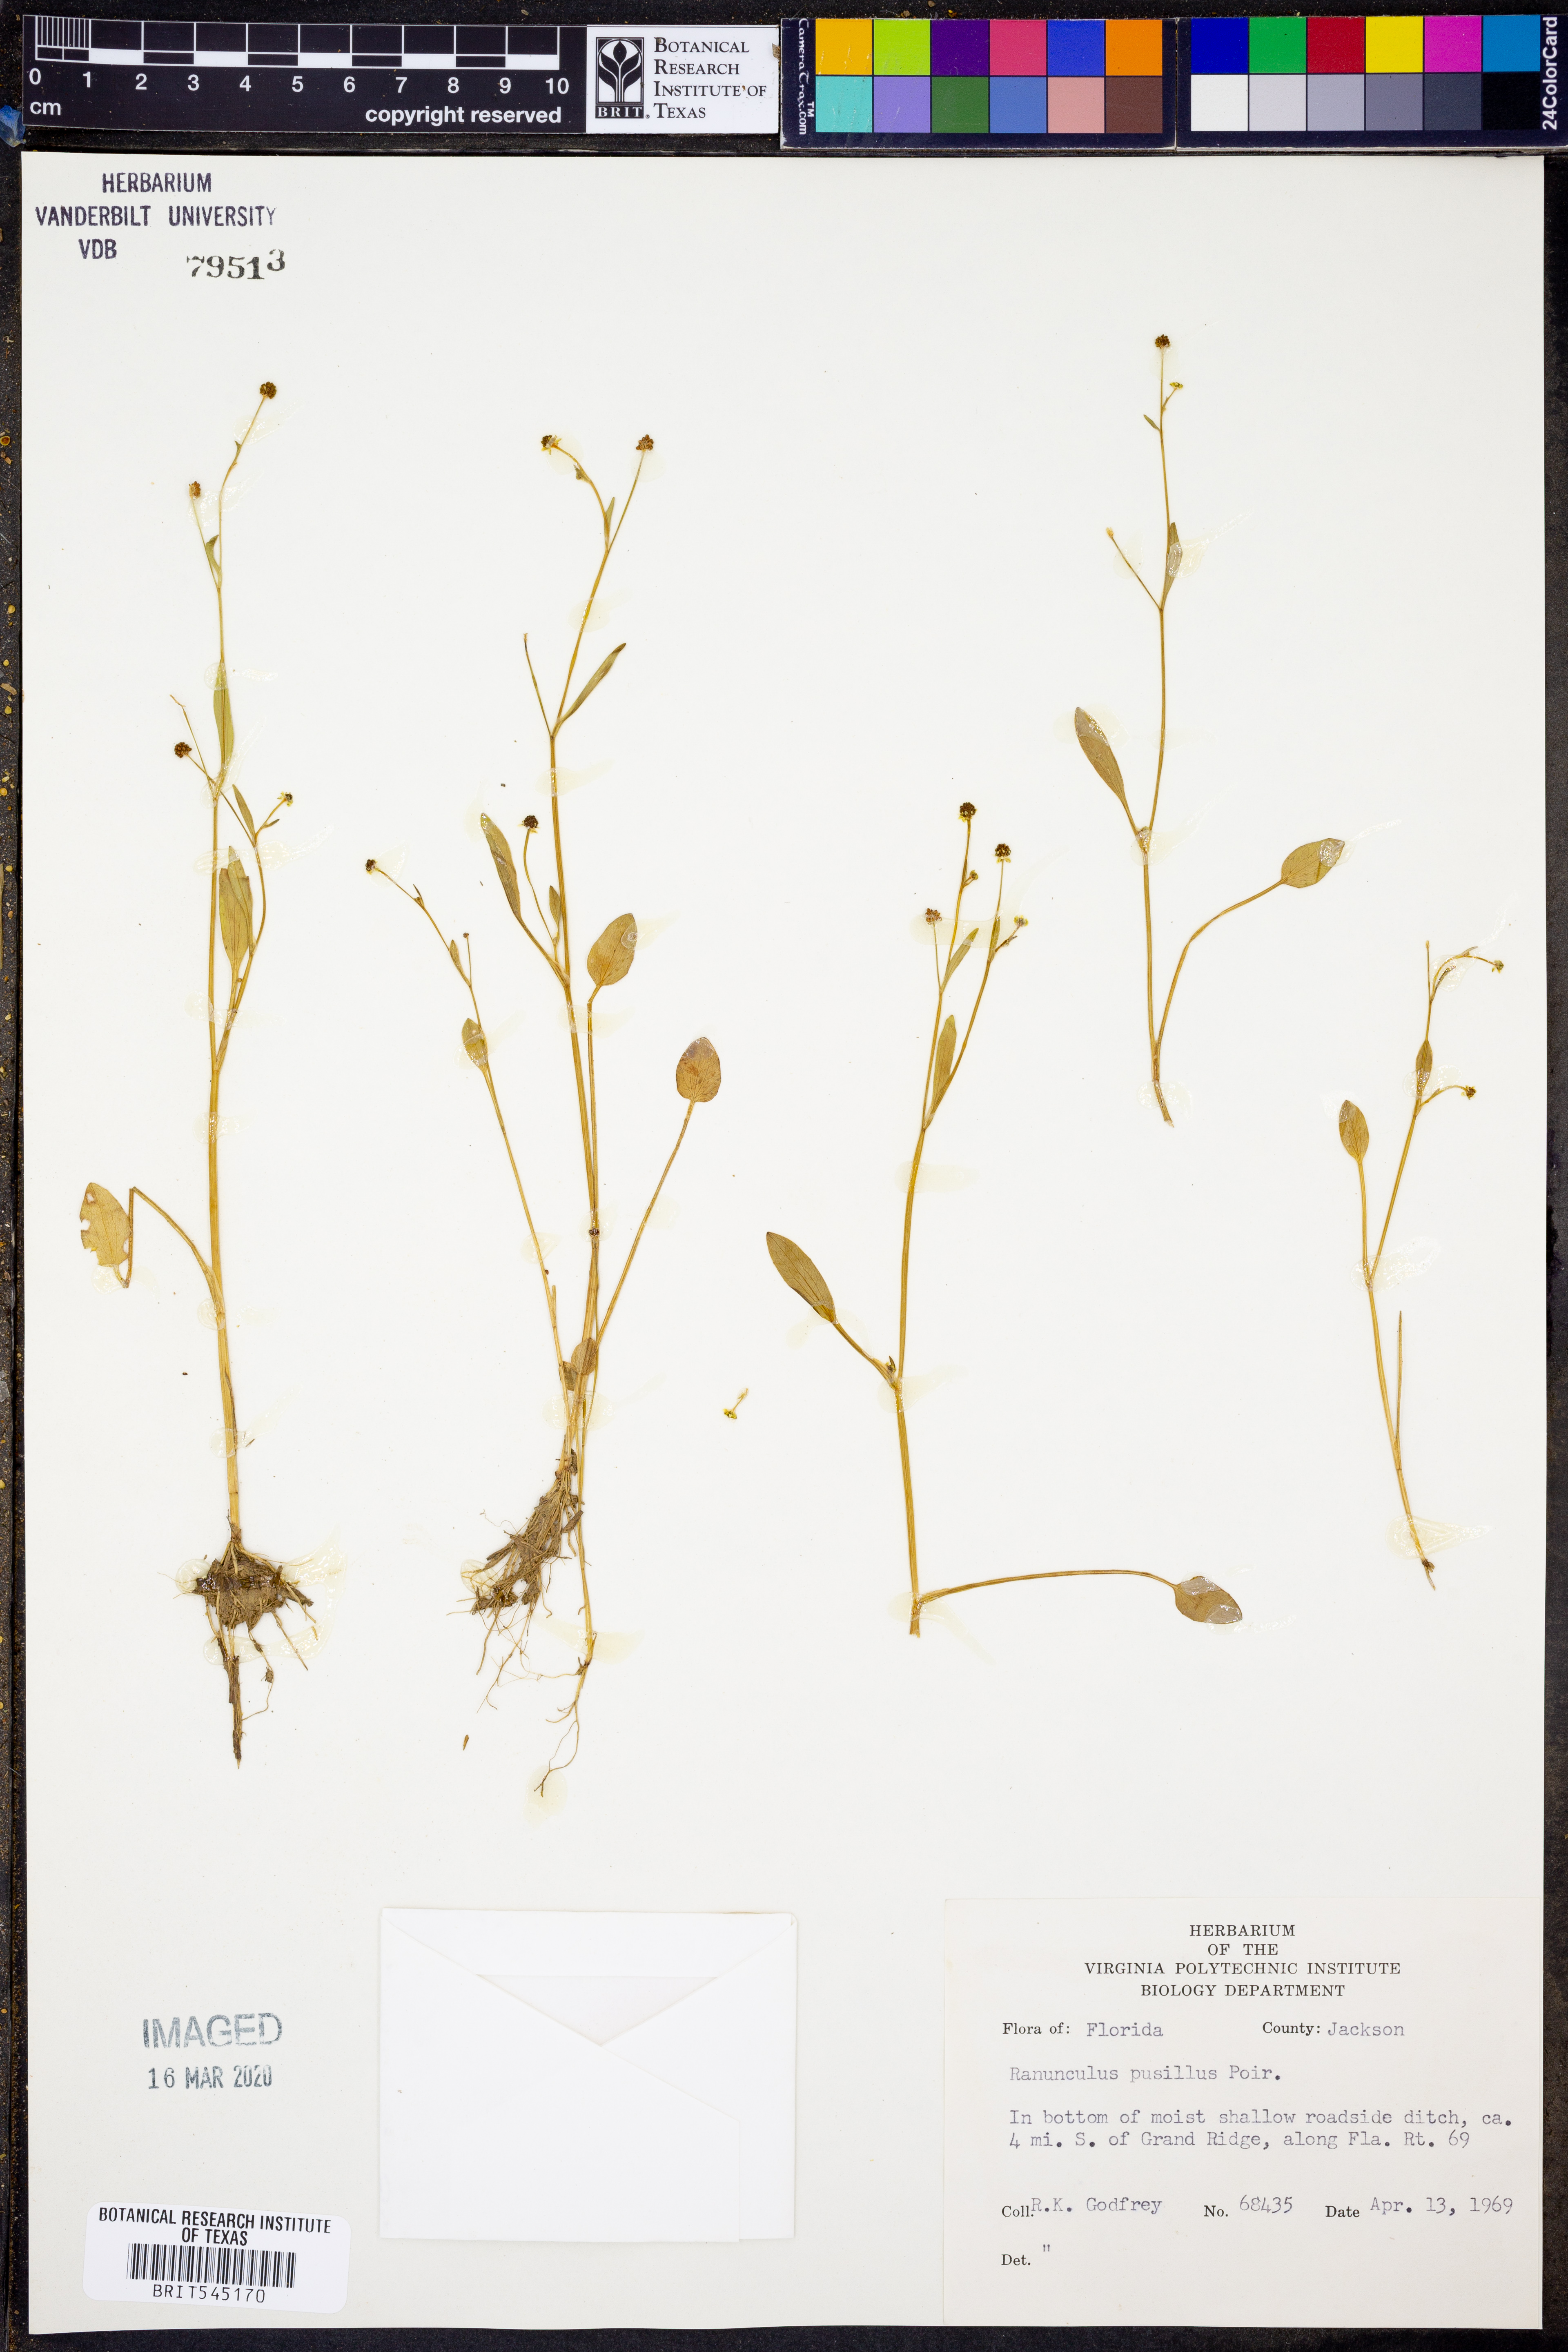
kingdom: Plantae
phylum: Tracheophyta
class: Magnoliopsida
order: Ranunculales
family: Ranunculaceae
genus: Ranunculus
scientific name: Ranunculus pusillus
